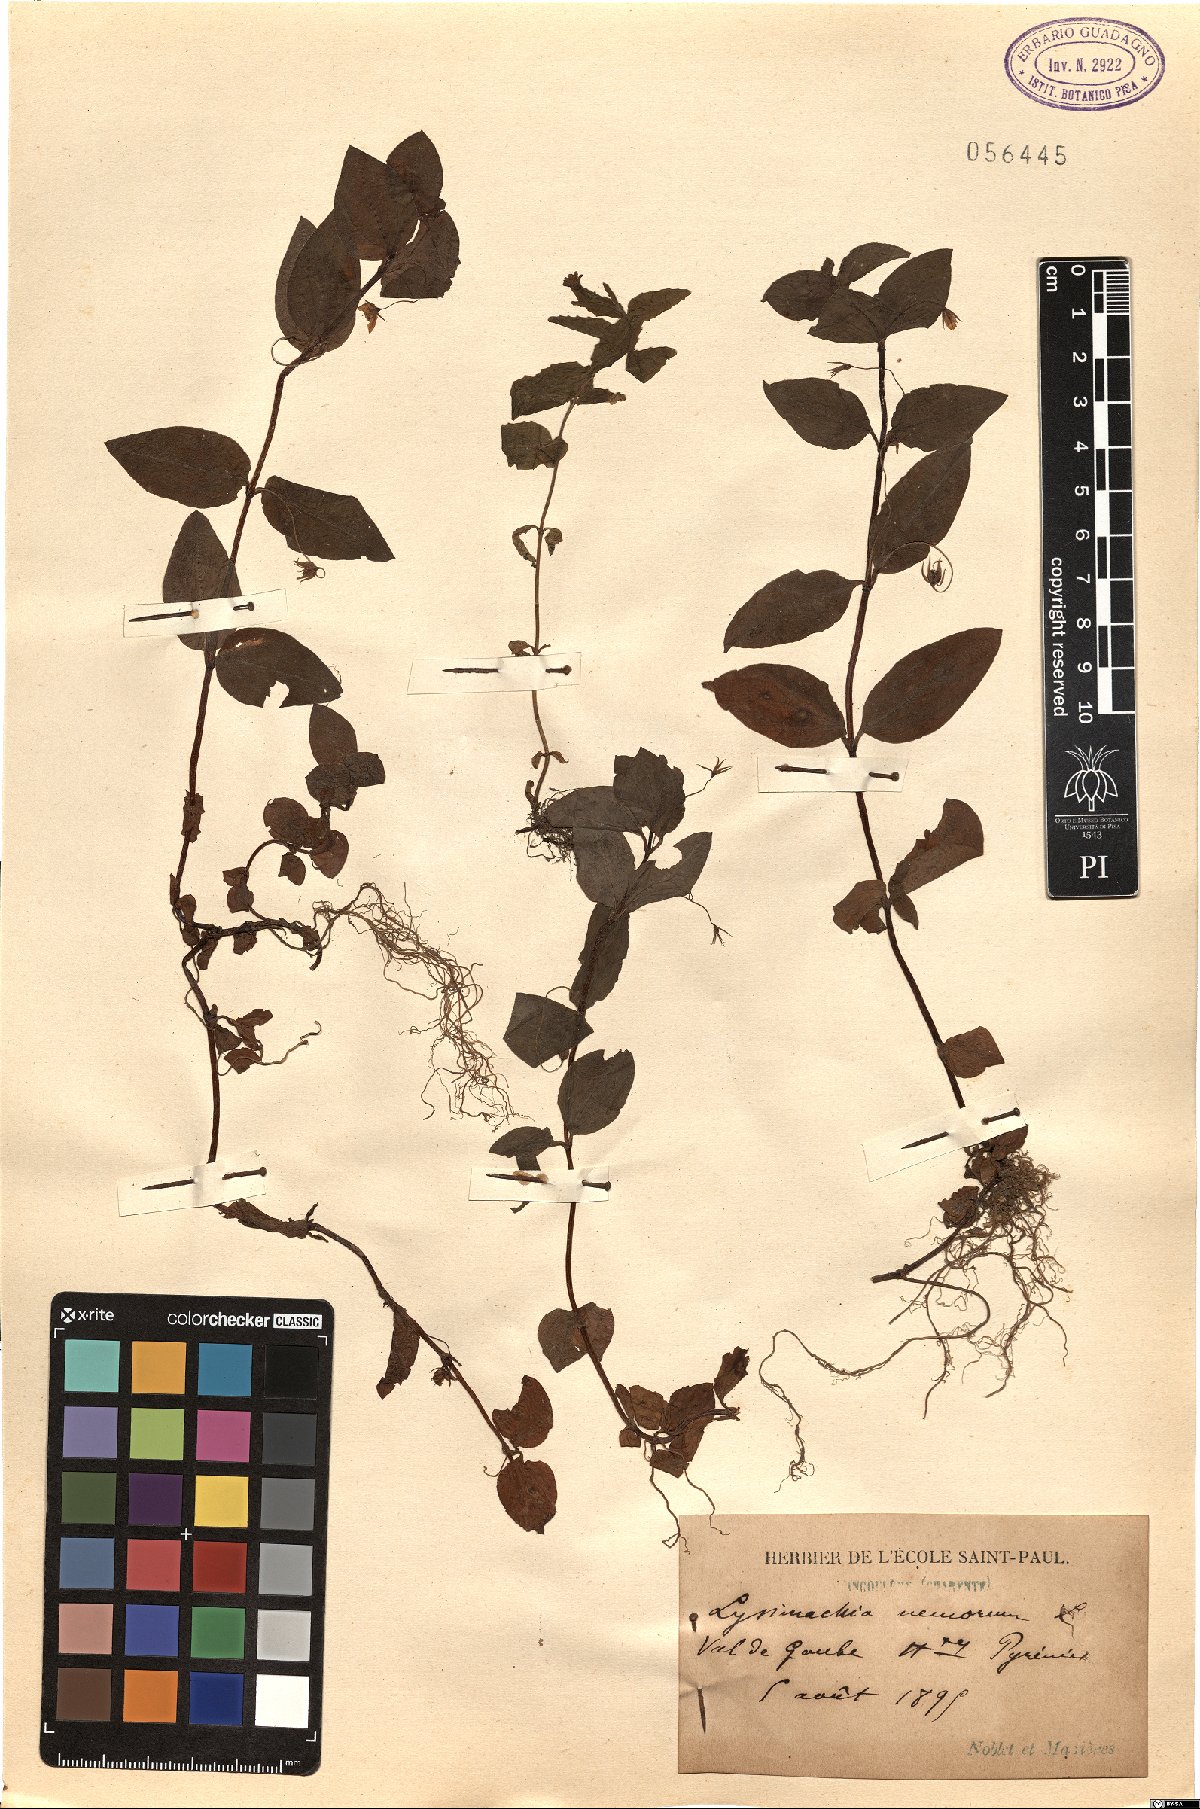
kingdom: Plantae
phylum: Tracheophyta
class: Magnoliopsida
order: Ericales
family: Primulaceae
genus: Lysimachia
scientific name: Lysimachia nemorum
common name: Yellow pimpernel
